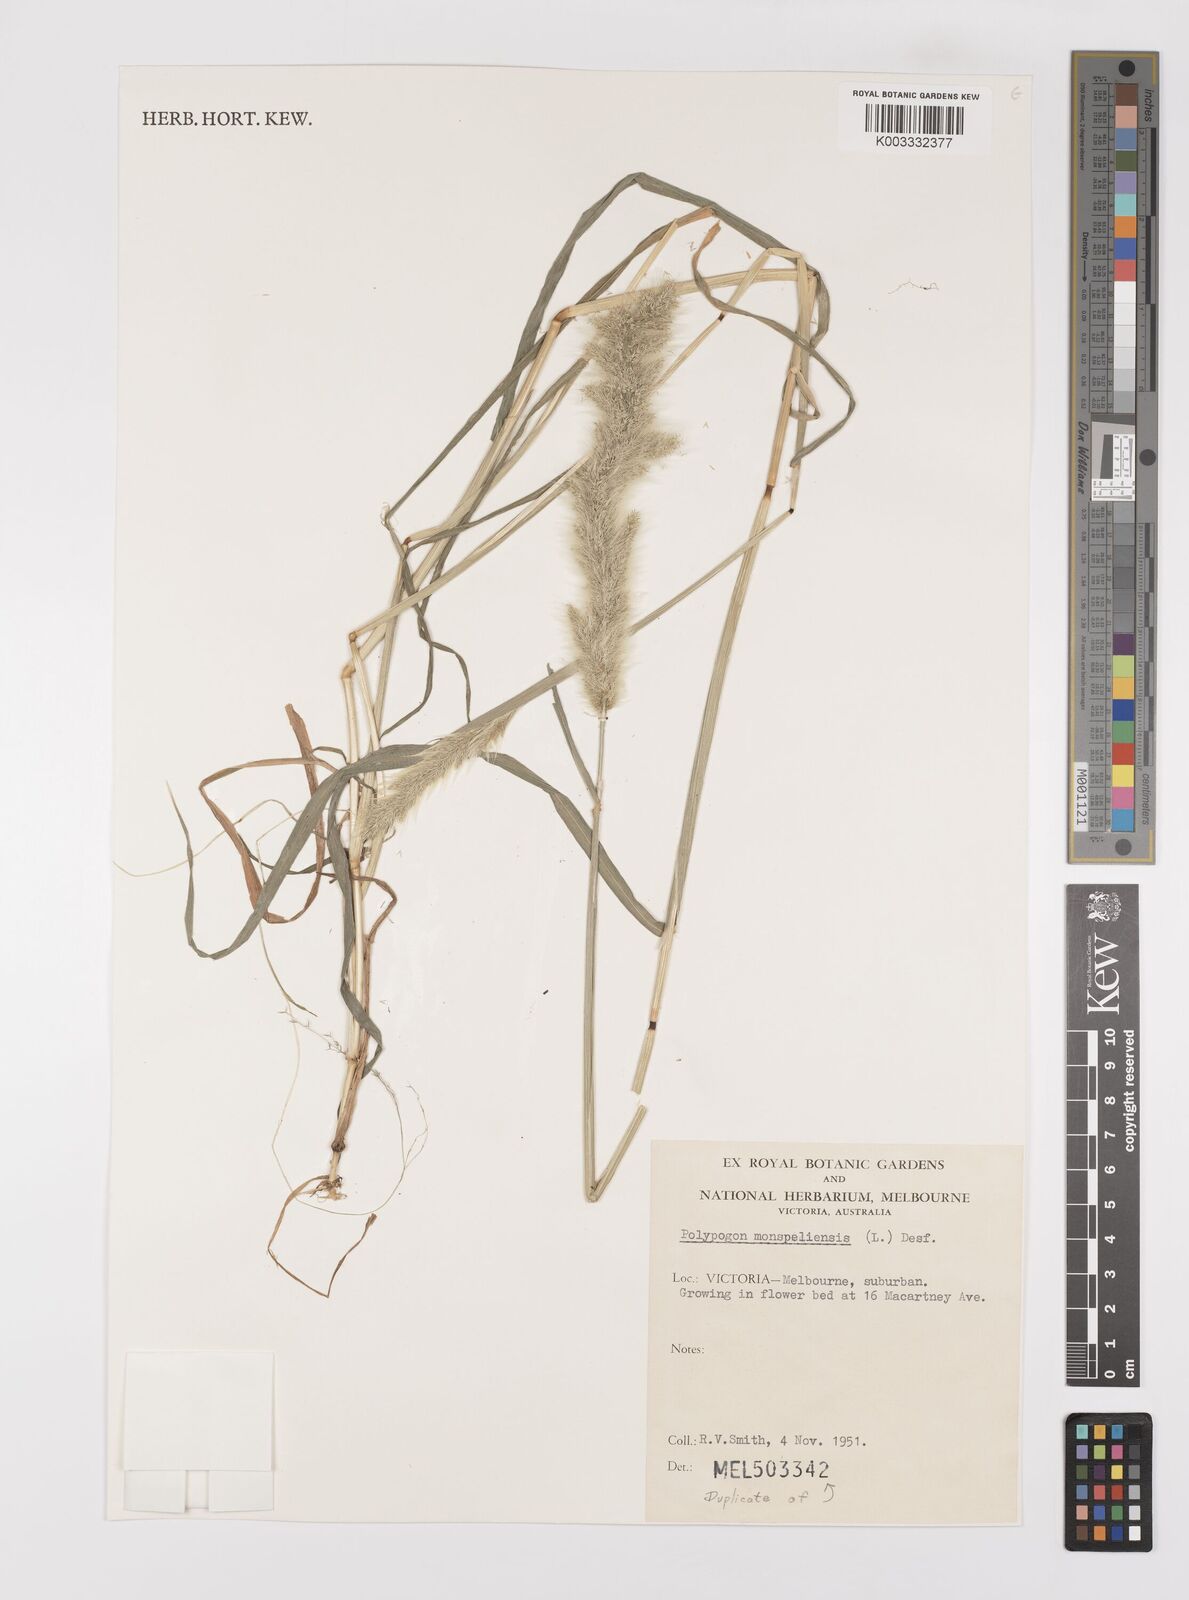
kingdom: Plantae
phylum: Tracheophyta
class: Liliopsida
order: Poales
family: Poaceae
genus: Polypogon
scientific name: Polypogon monspeliensis
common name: Annual rabbitsfoot grass
